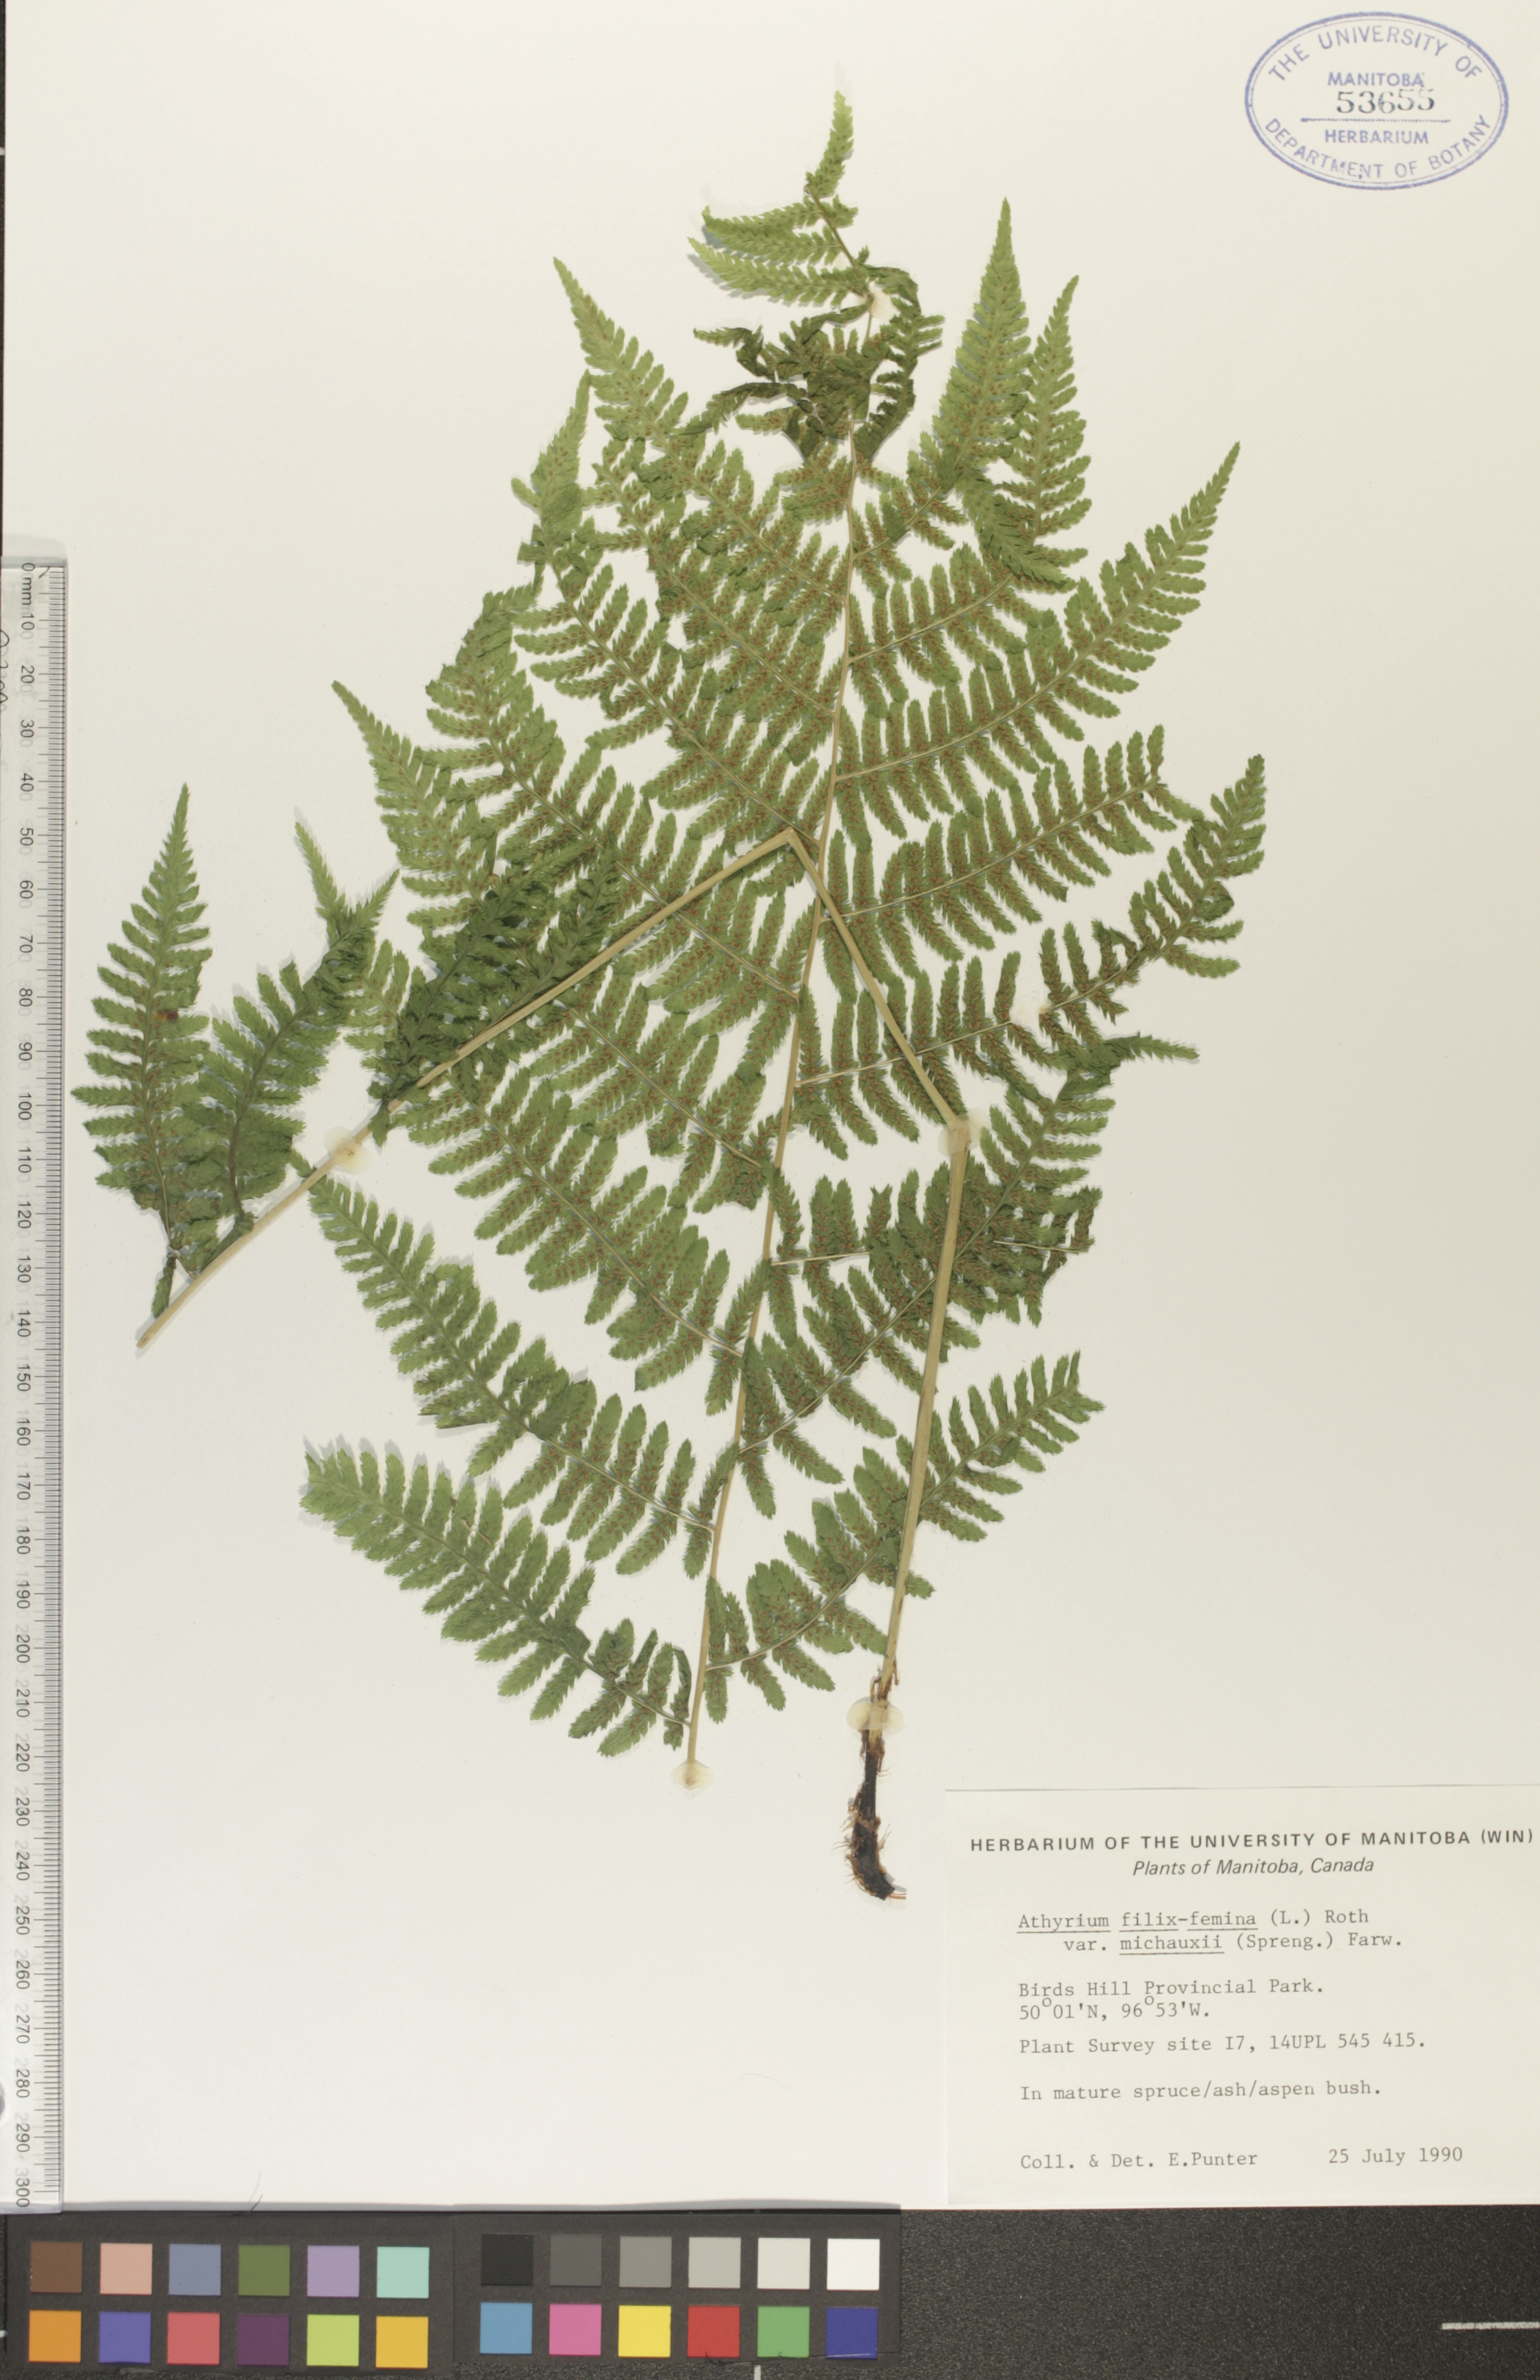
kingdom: Plantae
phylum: Tracheophyta
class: Polypodiopsida
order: Polypodiales
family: Athyriaceae
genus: Athyrium
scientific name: Athyrium angustum
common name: Northern lady fern
